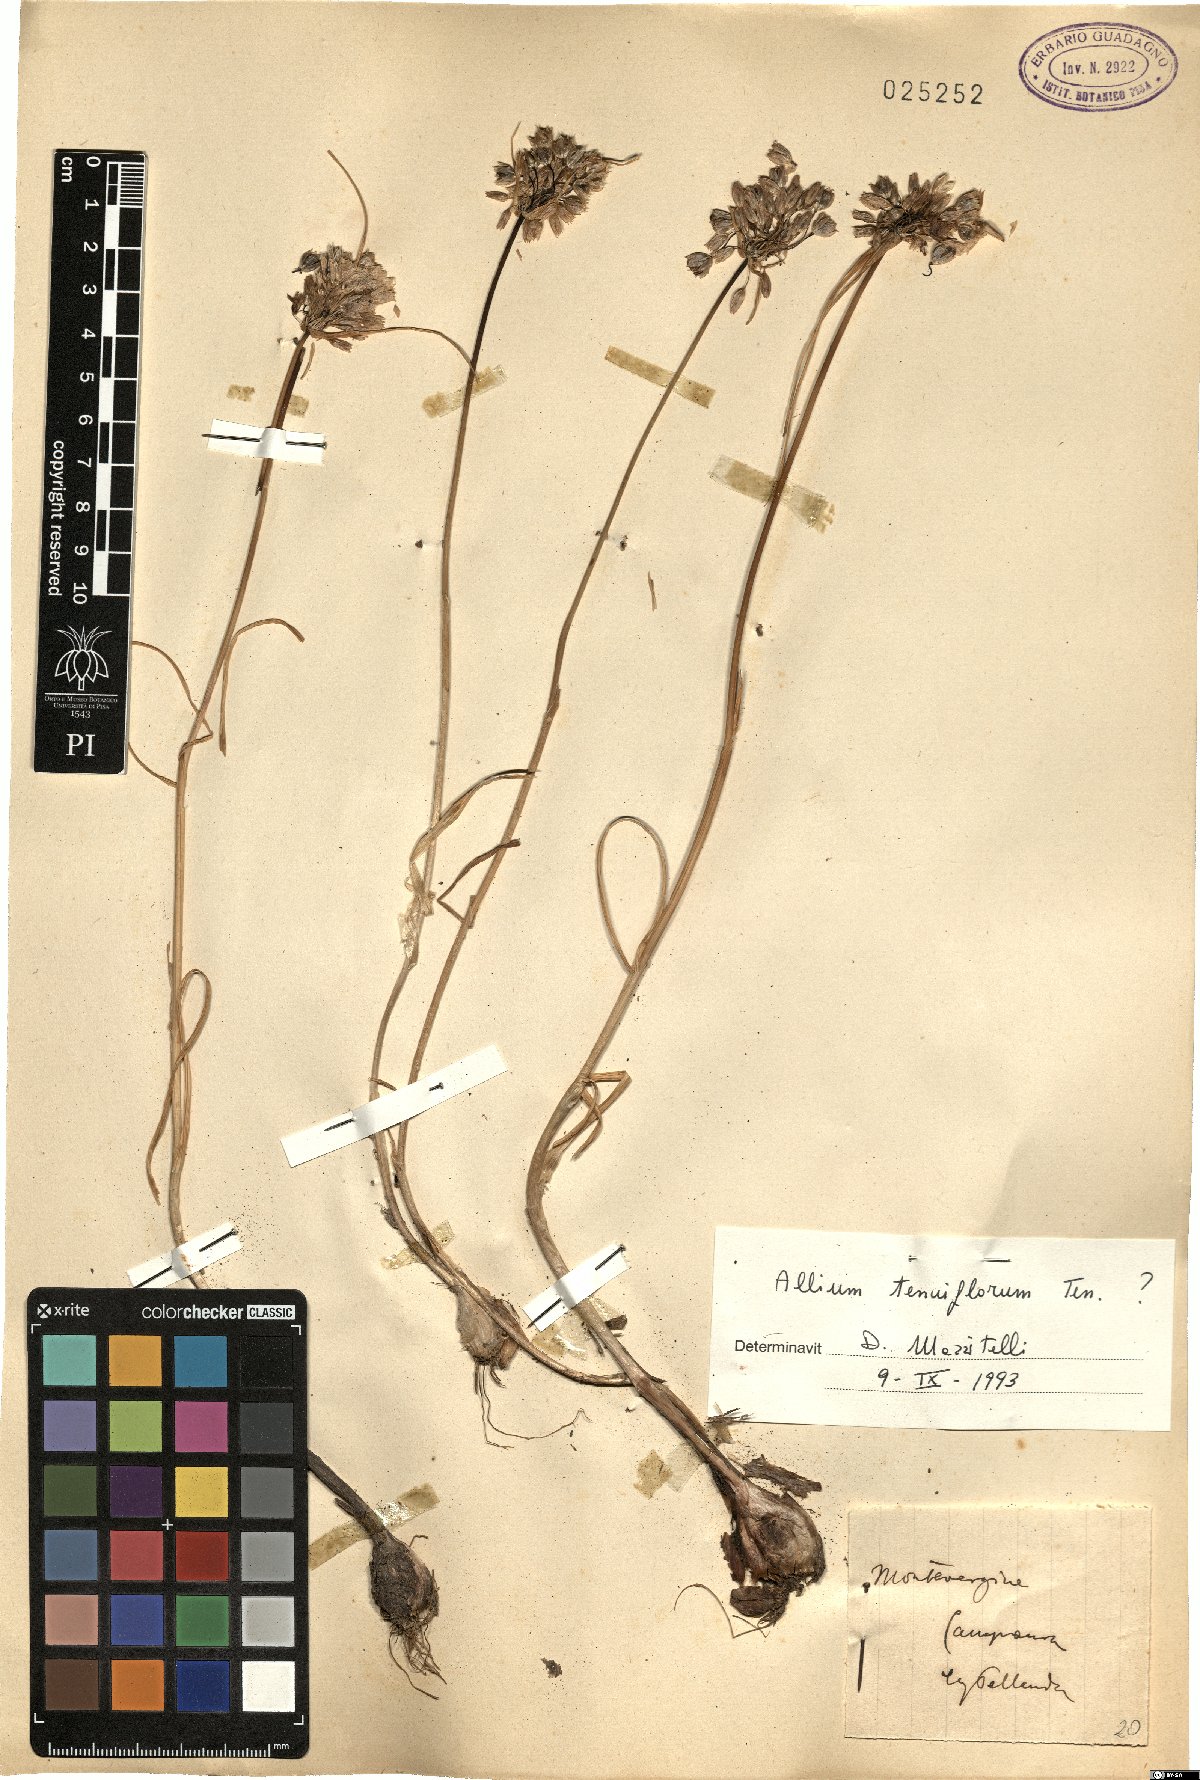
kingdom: Plantae
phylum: Tracheophyta
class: Liliopsida
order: Asparagales
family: Amaryllidaceae
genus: Allium
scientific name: Allium tenuiflorum
